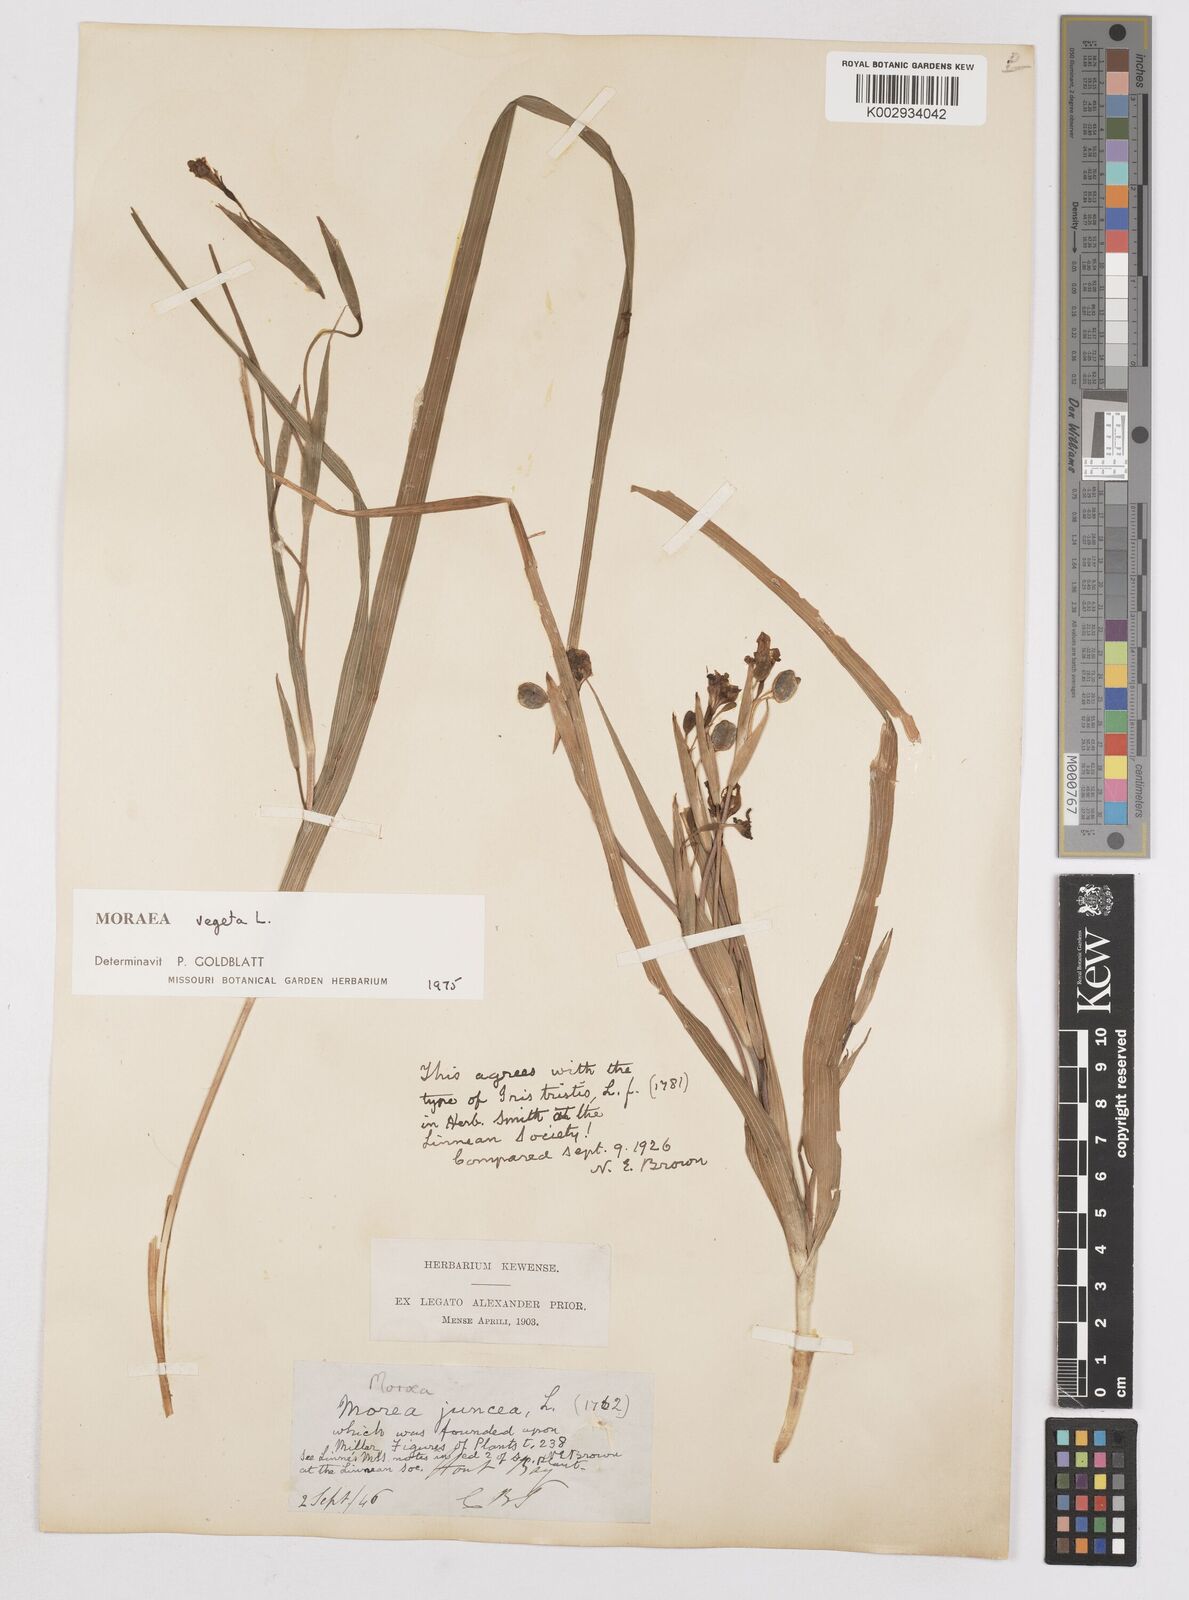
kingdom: Plantae
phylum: Tracheophyta
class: Liliopsida
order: Asparagales
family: Iridaceae
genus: Moraea
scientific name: Moraea vegeta
